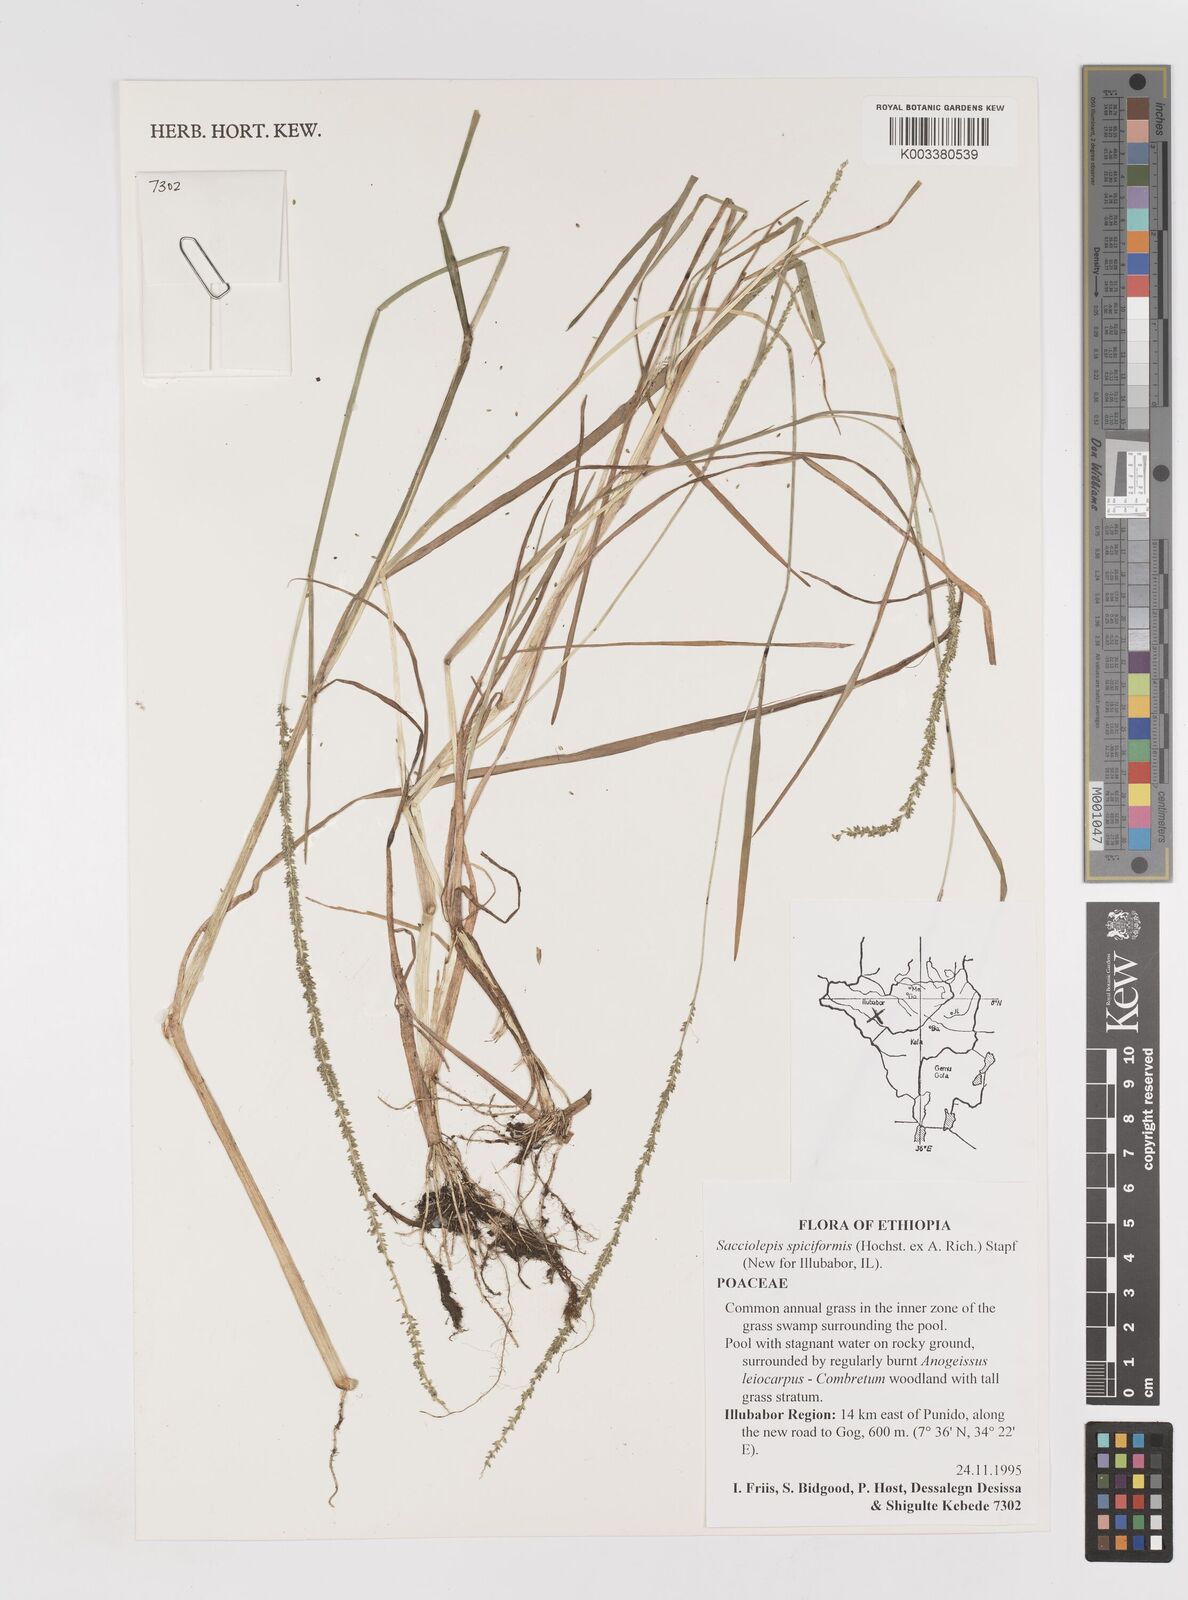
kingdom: Plantae
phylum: Tracheophyta
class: Liliopsida
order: Poales
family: Poaceae
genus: Sacciolepis
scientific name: Sacciolepis myosuroides
